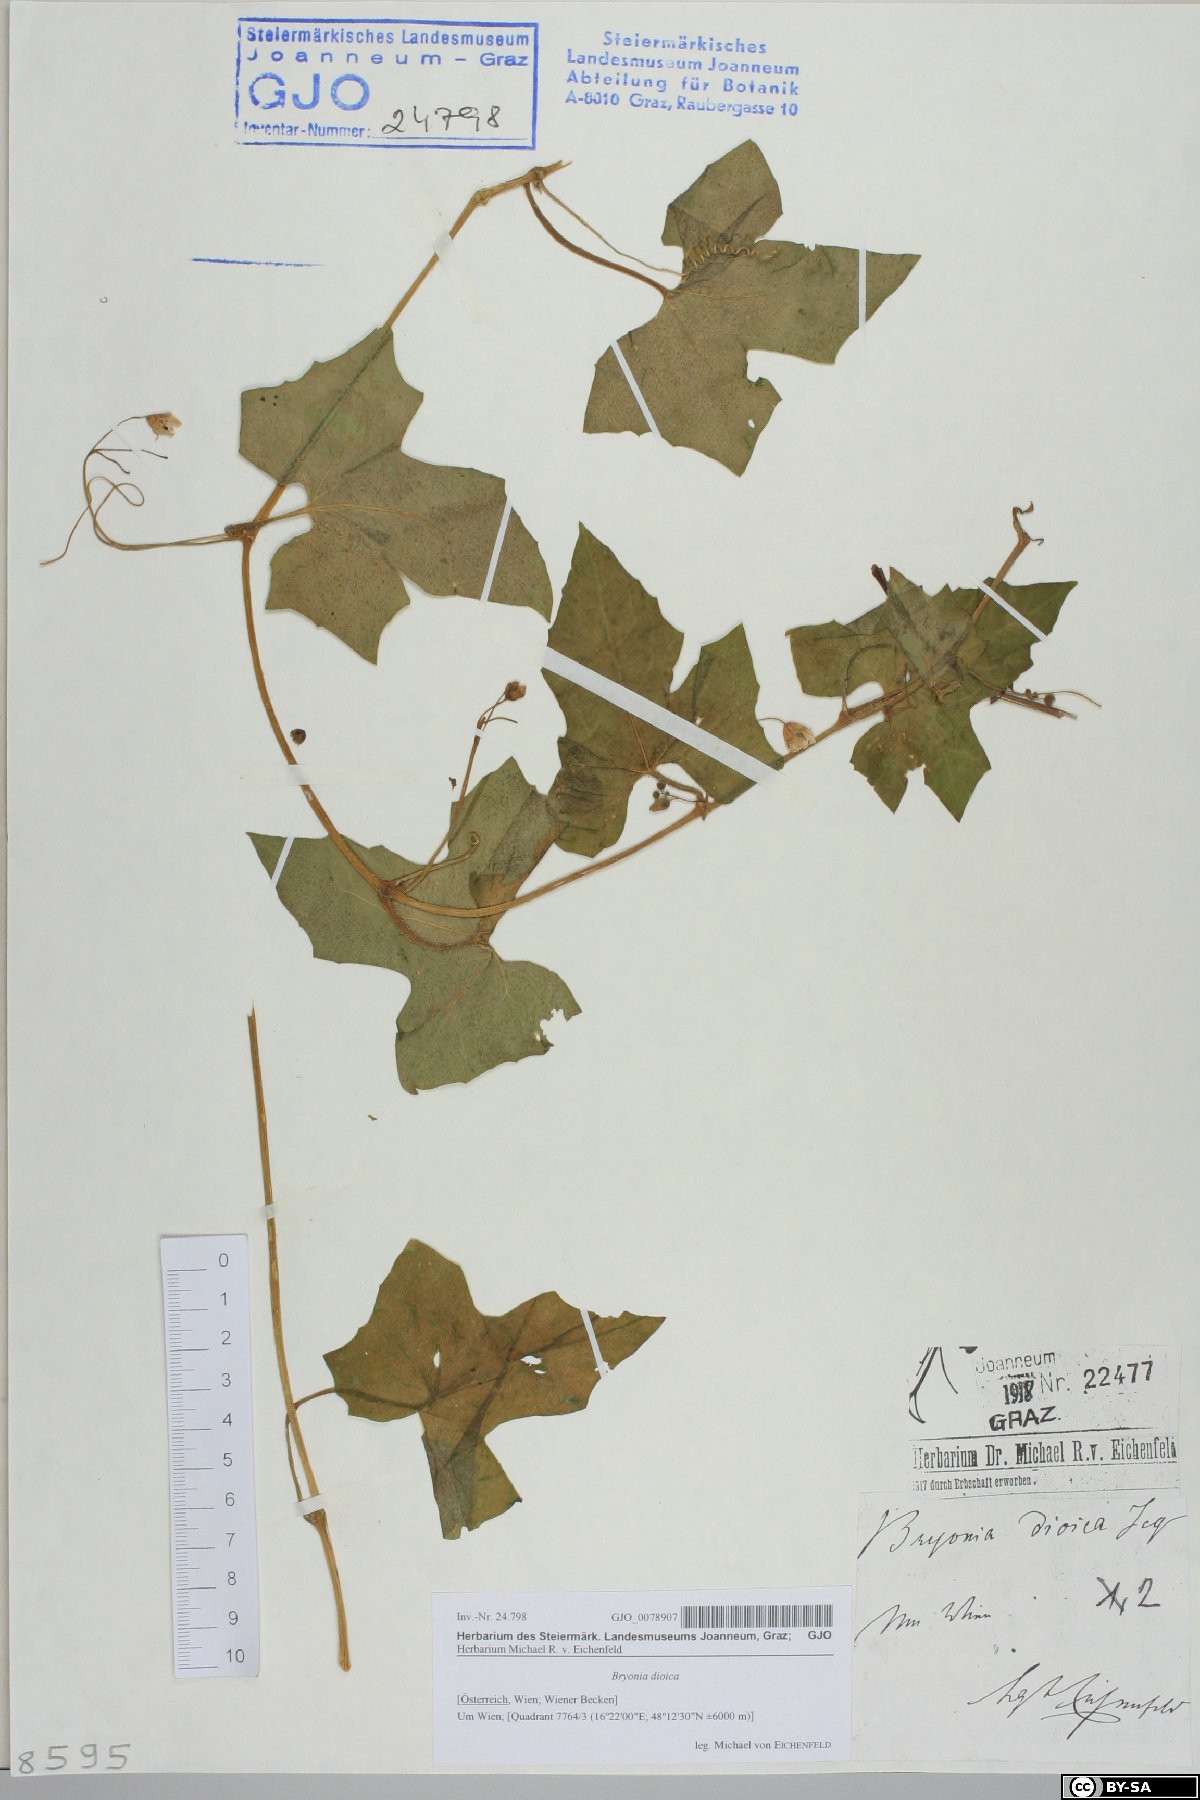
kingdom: Plantae
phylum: Tracheophyta
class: Magnoliopsida
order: Cucurbitales
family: Cucurbitaceae
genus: Bryonia
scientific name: Bryonia dioica
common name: White bryony
